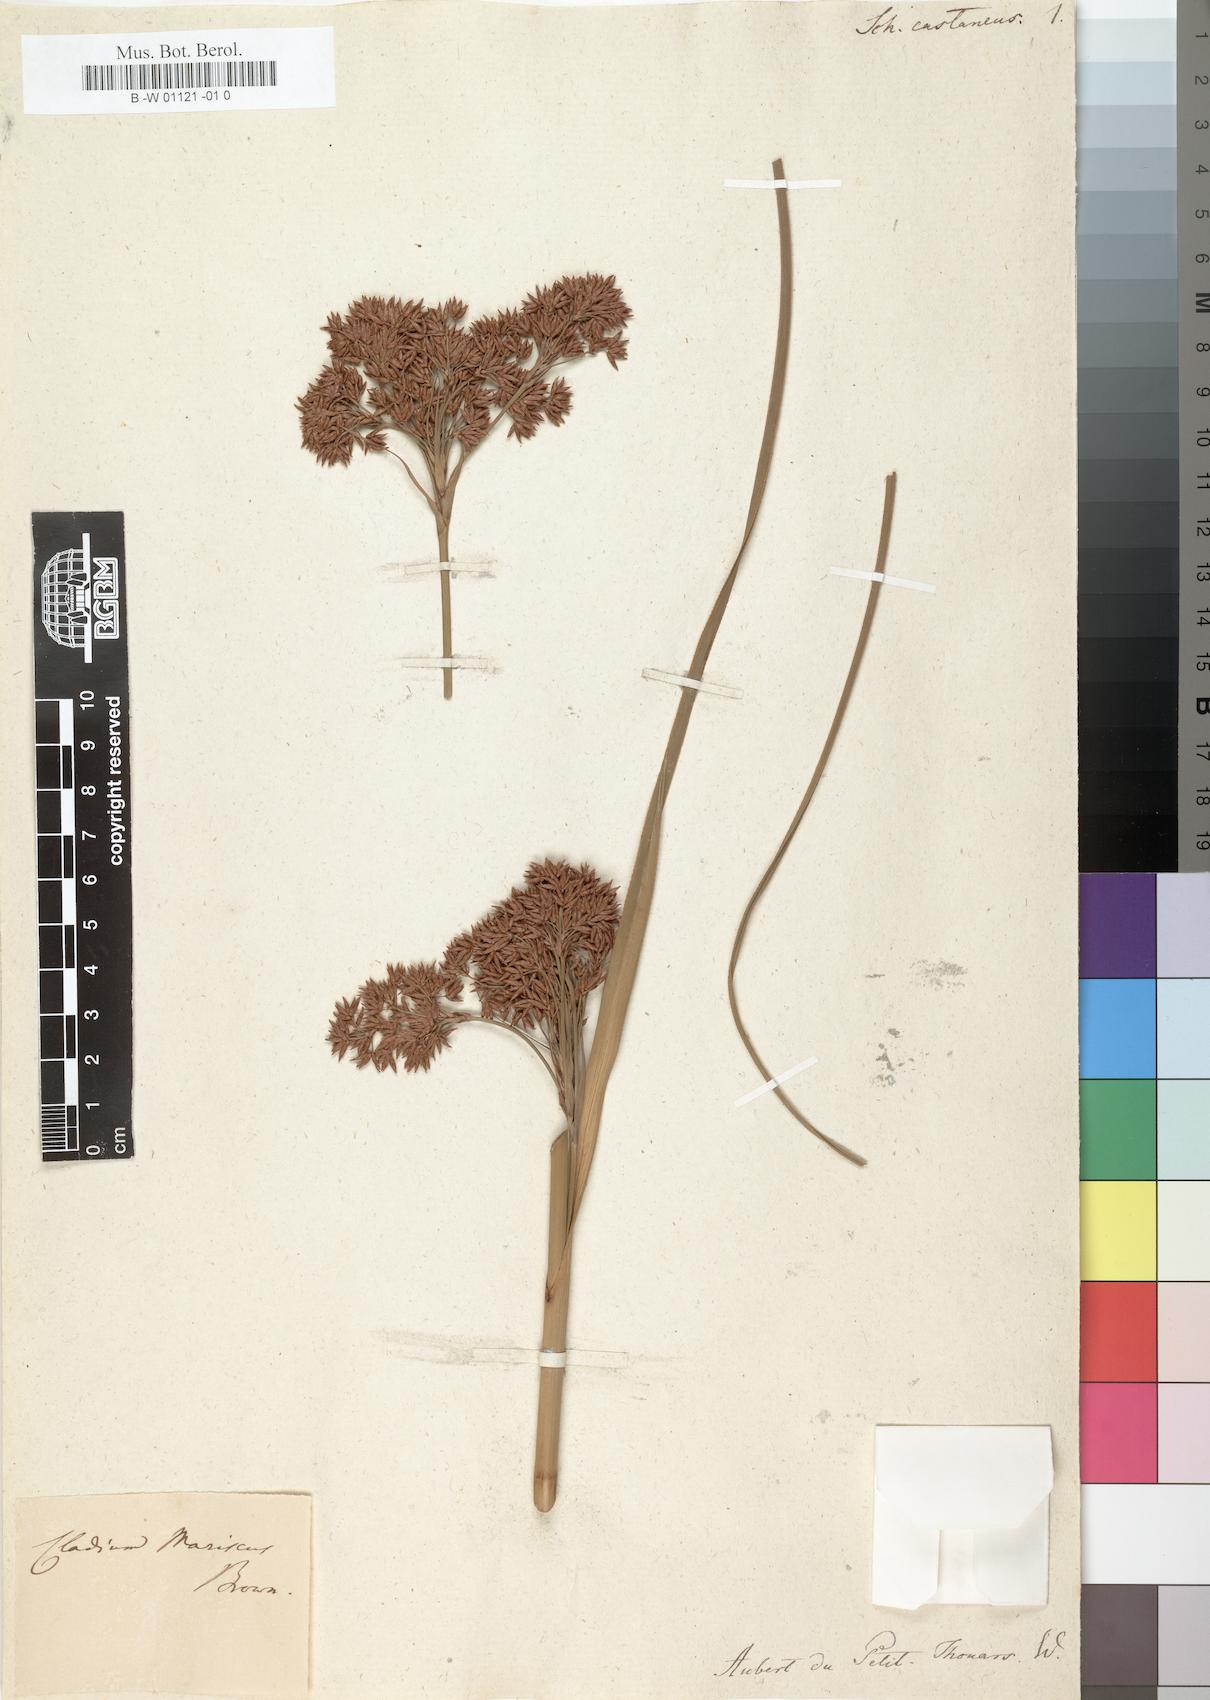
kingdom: Plantae
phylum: Tracheophyta
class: Liliopsida
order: Poales
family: Cyperaceae
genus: Cladium
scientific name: Cladium mariscus
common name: Great fen-sedge
